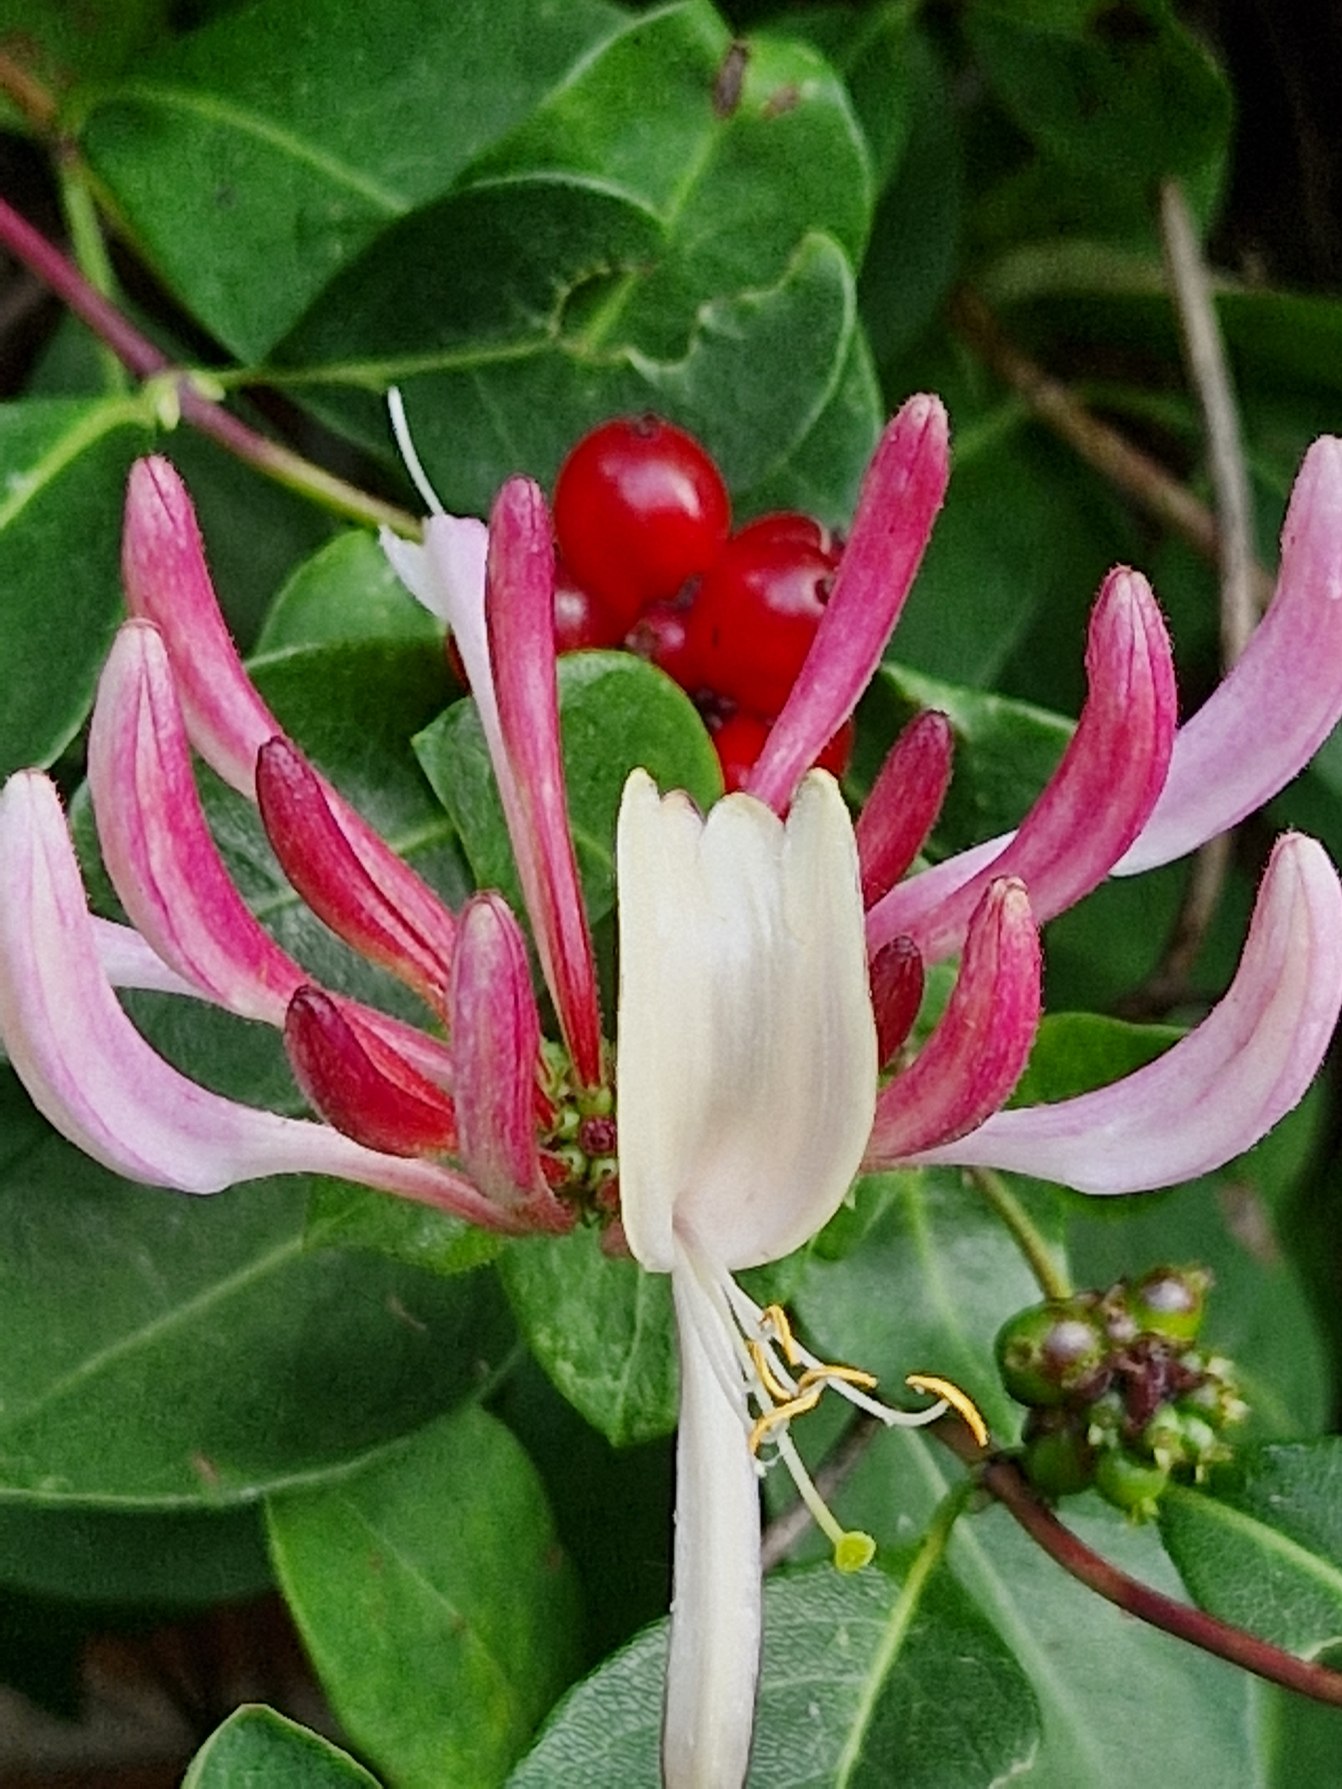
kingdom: Plantae
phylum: Tracheophyta
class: Magnoliopsida
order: Dipsacales
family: Caprifoliaceae
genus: Lonicera
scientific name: Lonicera periclymenum
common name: Almindelig gedeblad
